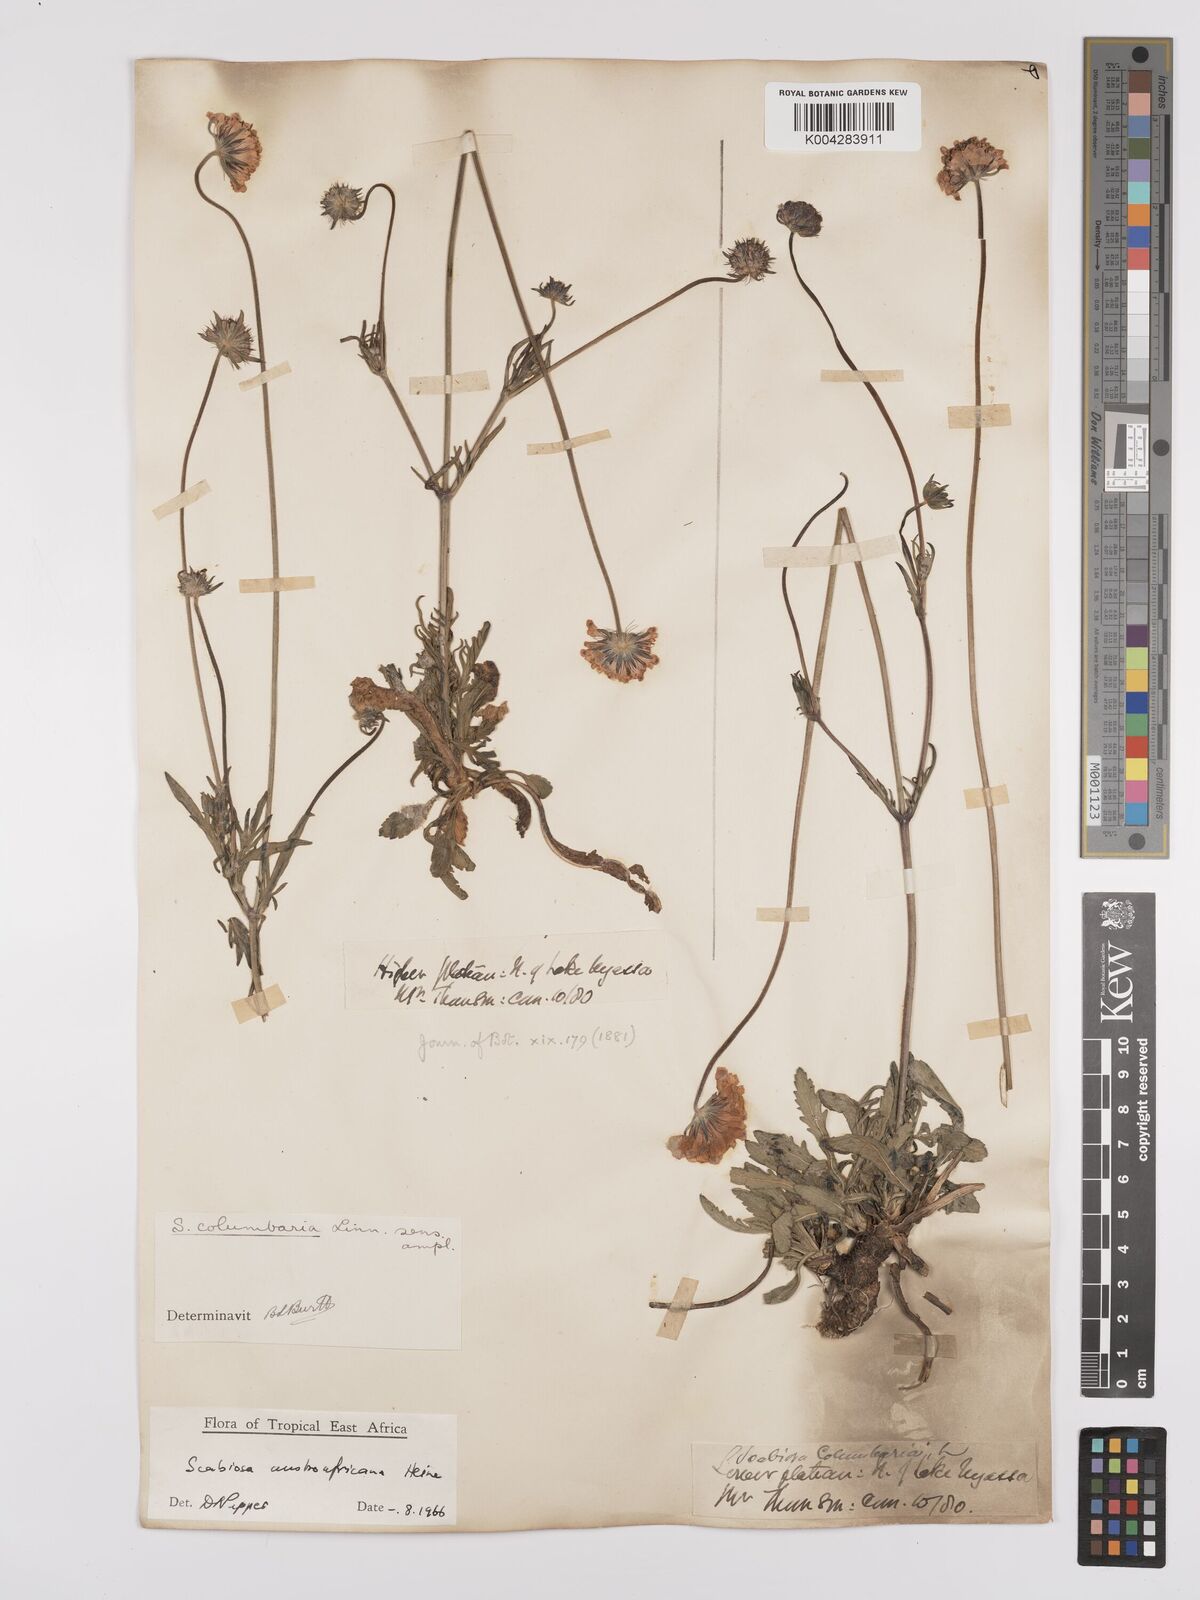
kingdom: Plantae
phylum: Tracheophyta
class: Magnoliopsida
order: Dipsacales
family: Caprifoliaceae
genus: Scabiosa
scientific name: Scabiosa austroafricana
